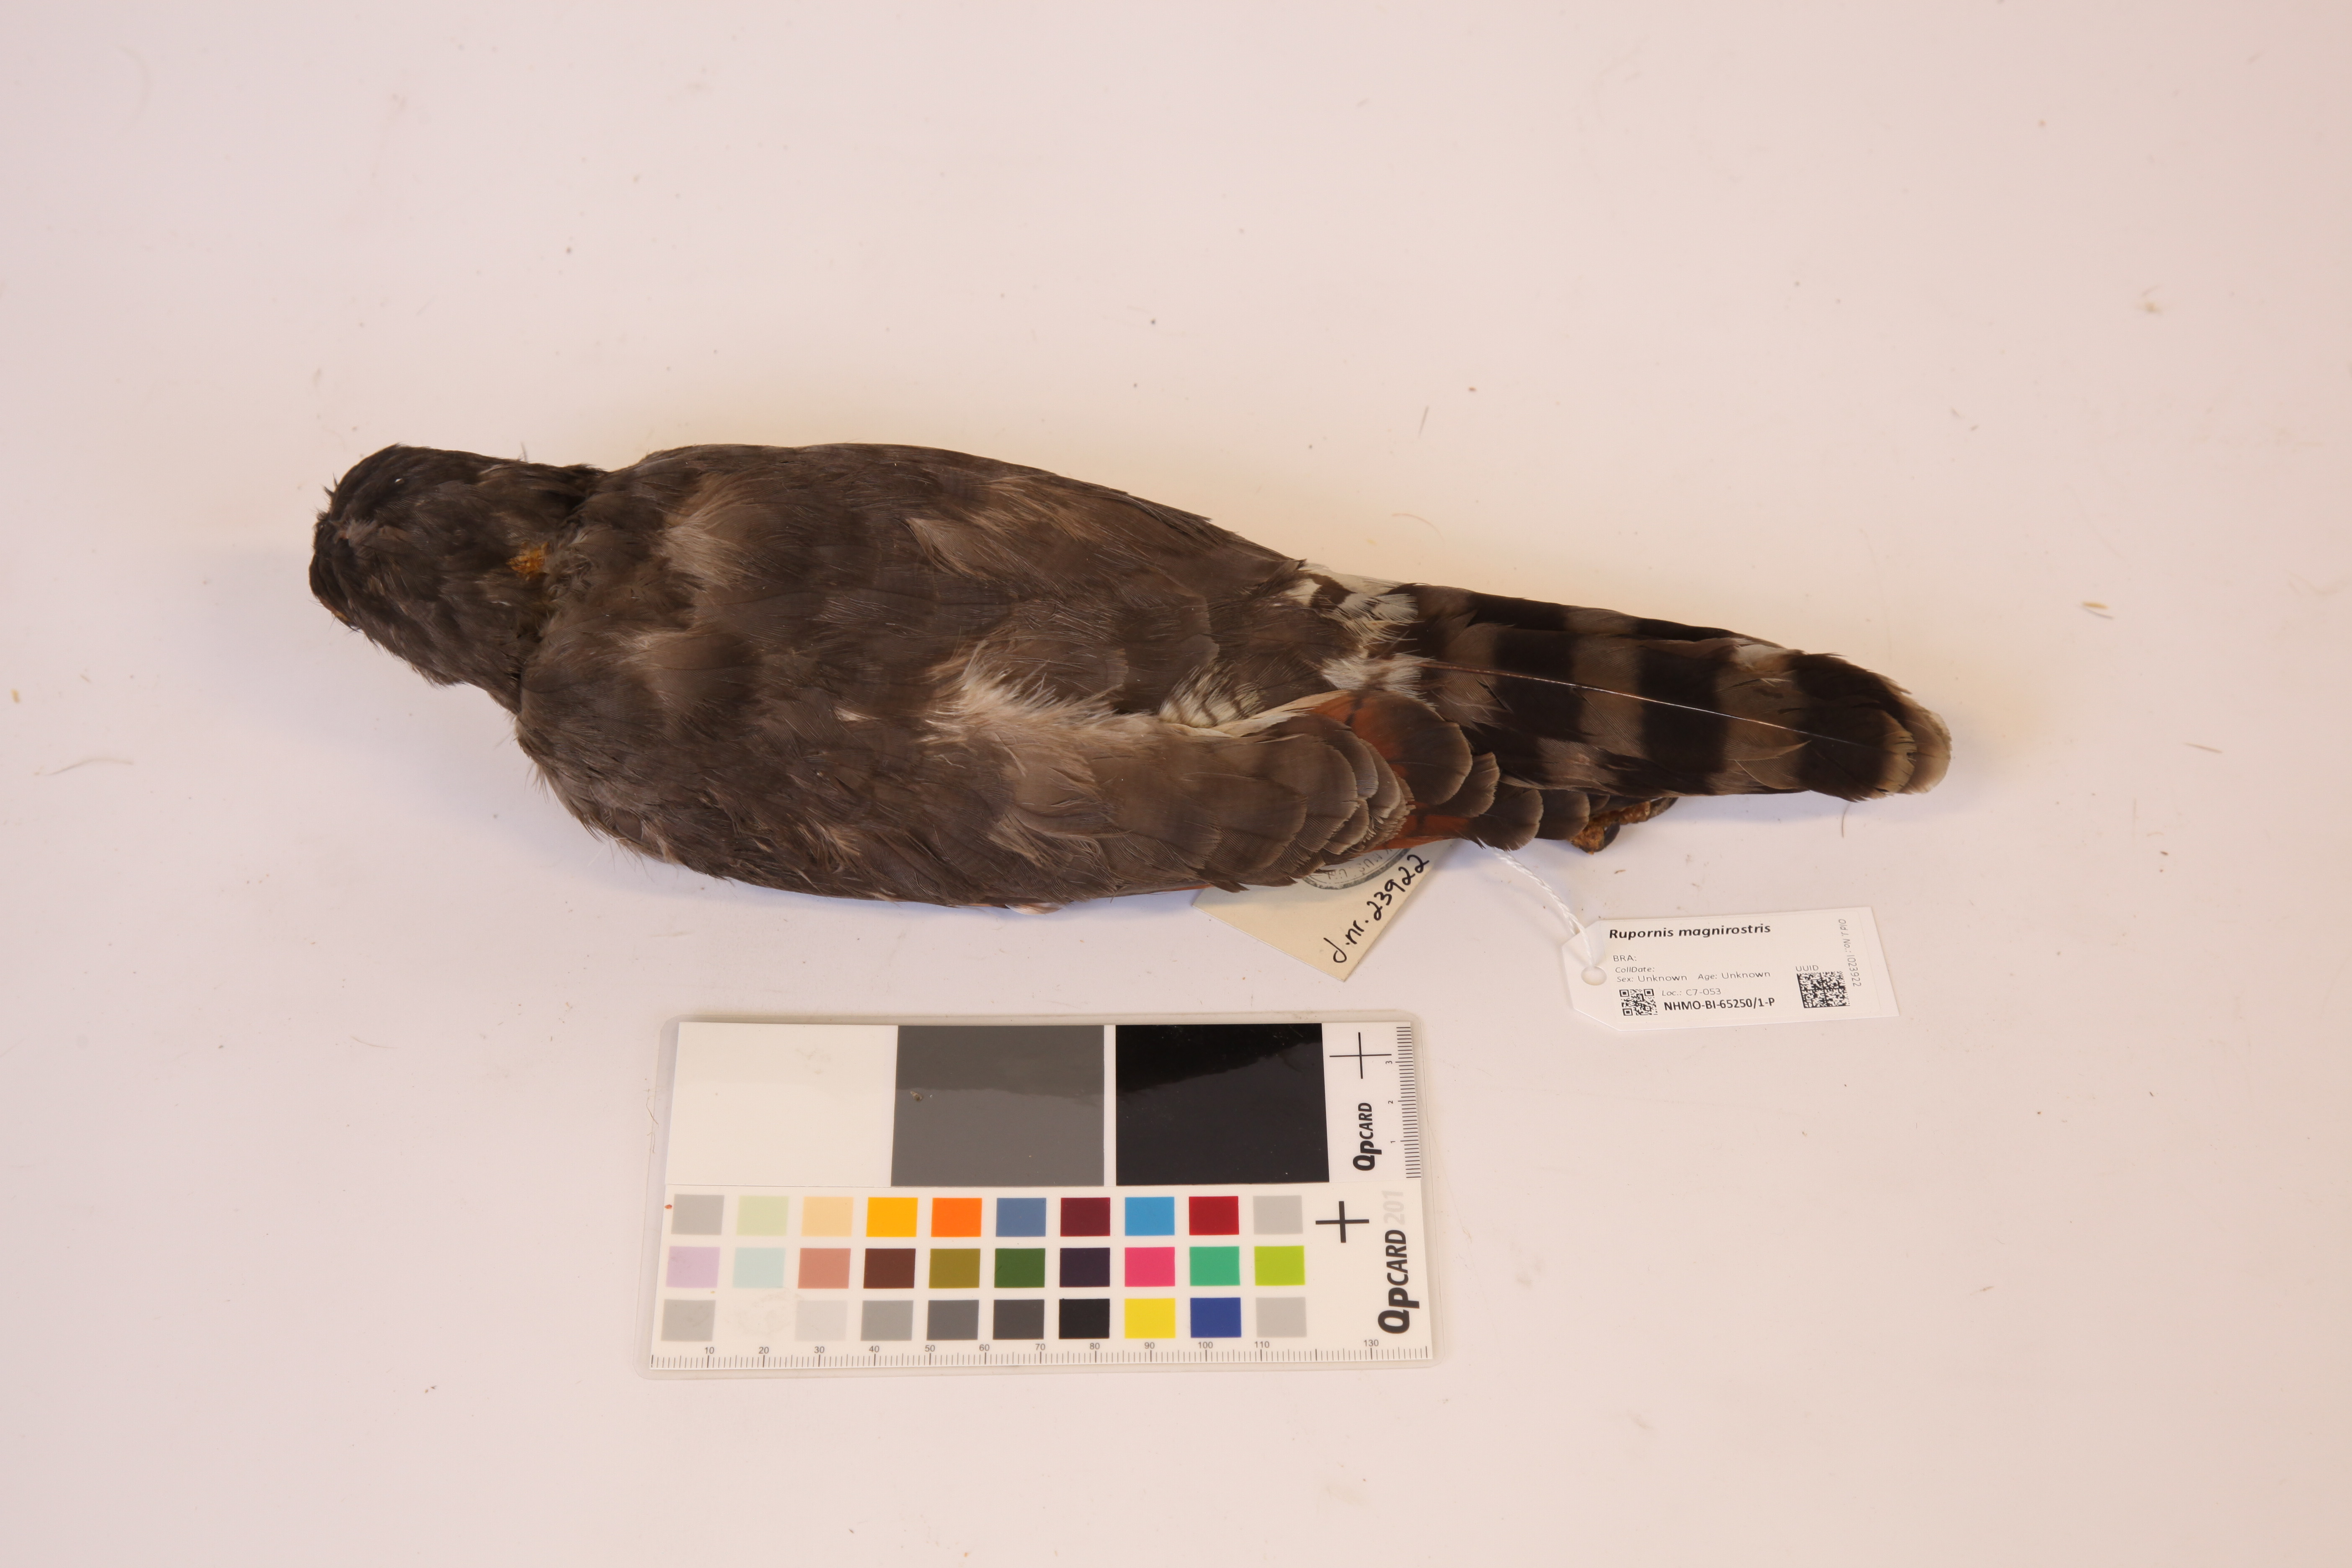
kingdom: Animalia
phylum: Chordata
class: Aves
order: Accipitriformes
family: Accipitridae
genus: Rupornis
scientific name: Rupornis magnirostris
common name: Roadside hawk
